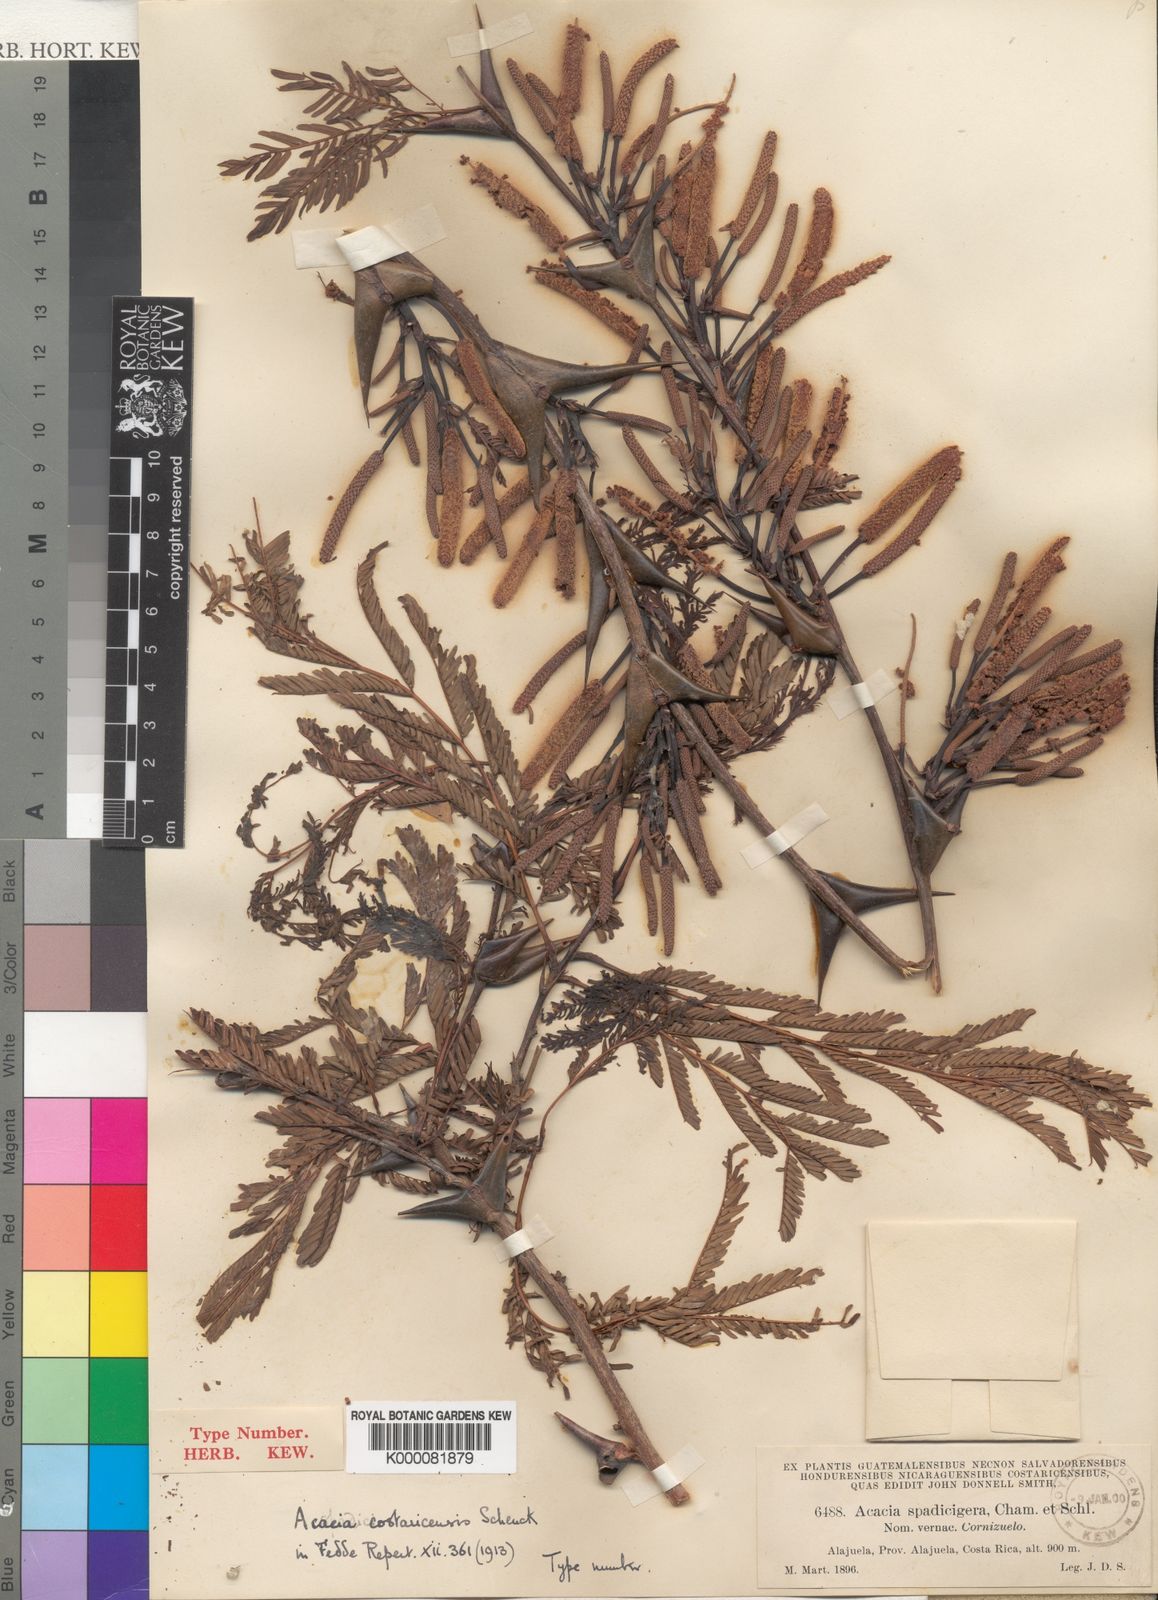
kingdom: Plantae
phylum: Tracheophyta
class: Magnoliopsida
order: Fabales
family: Fabaceae
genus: Vachellia
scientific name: Vachellia collinsii
